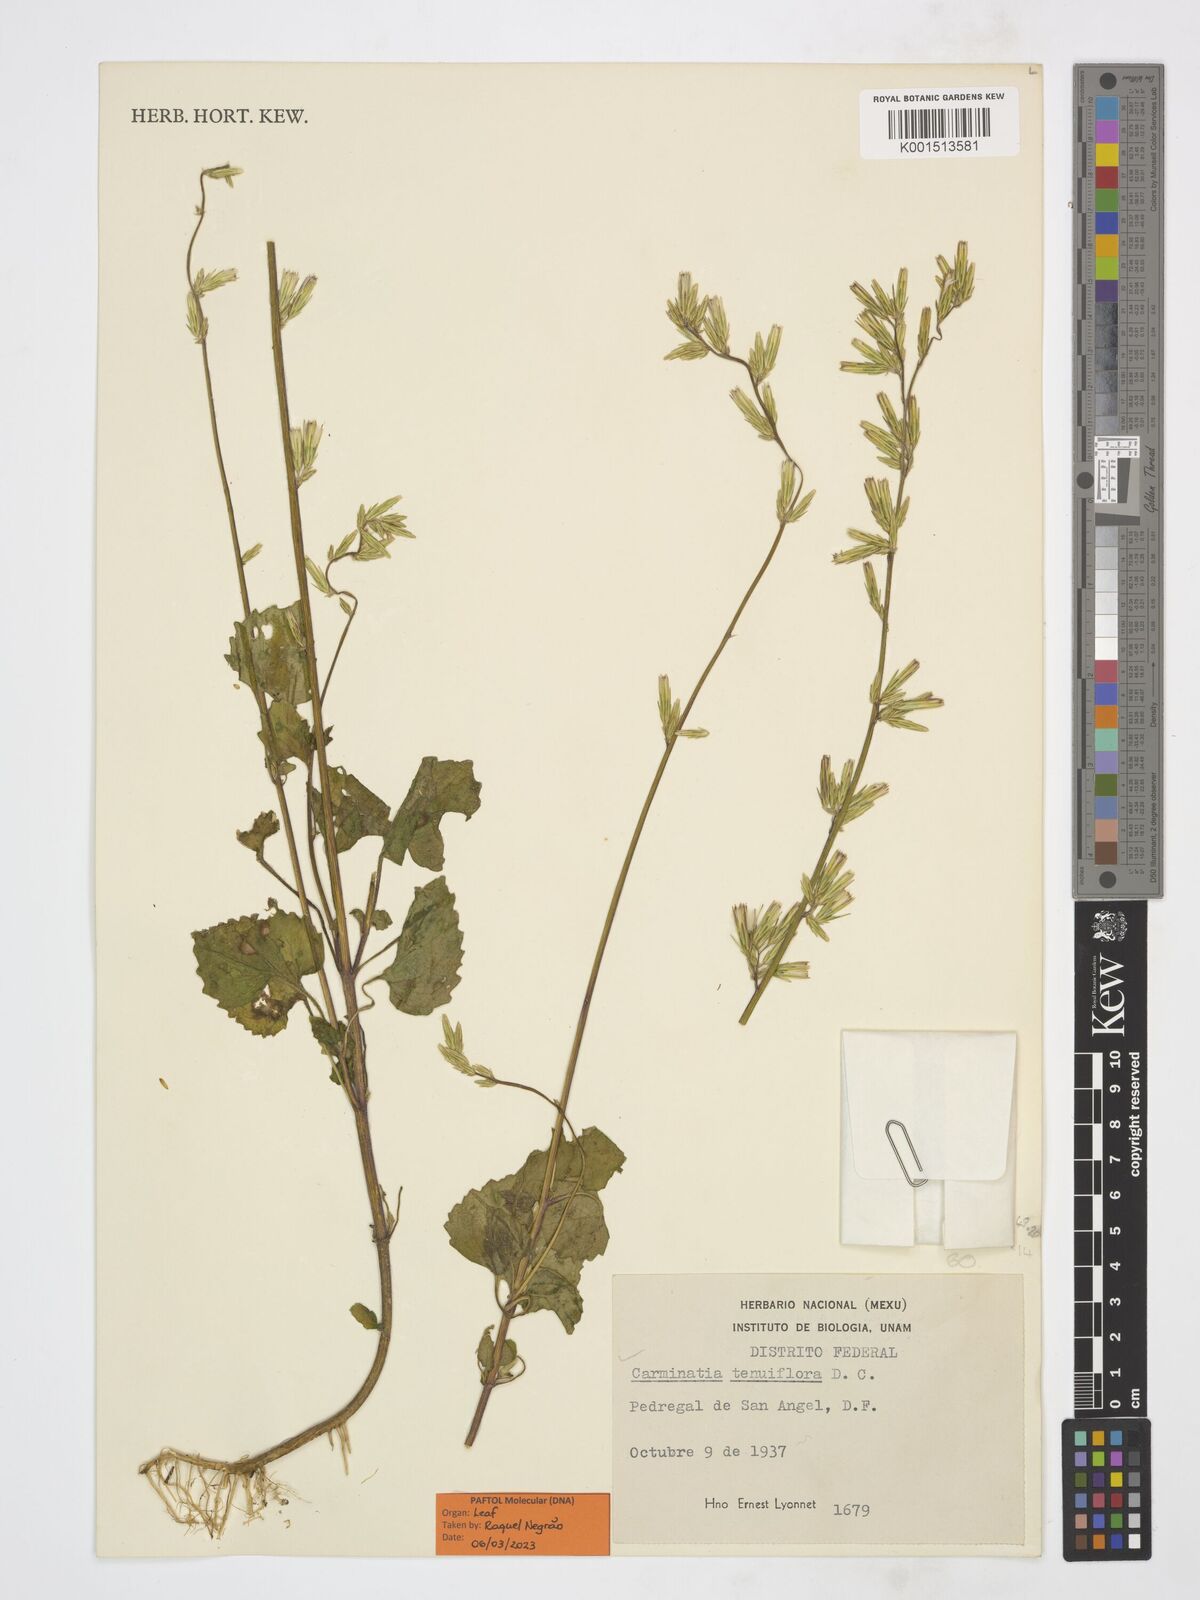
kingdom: Plantae
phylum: Tracheophyta
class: Magnoliopsida
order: Asterales
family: Asteraceae
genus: Carminatia
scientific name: Carminatia tenuiflora
